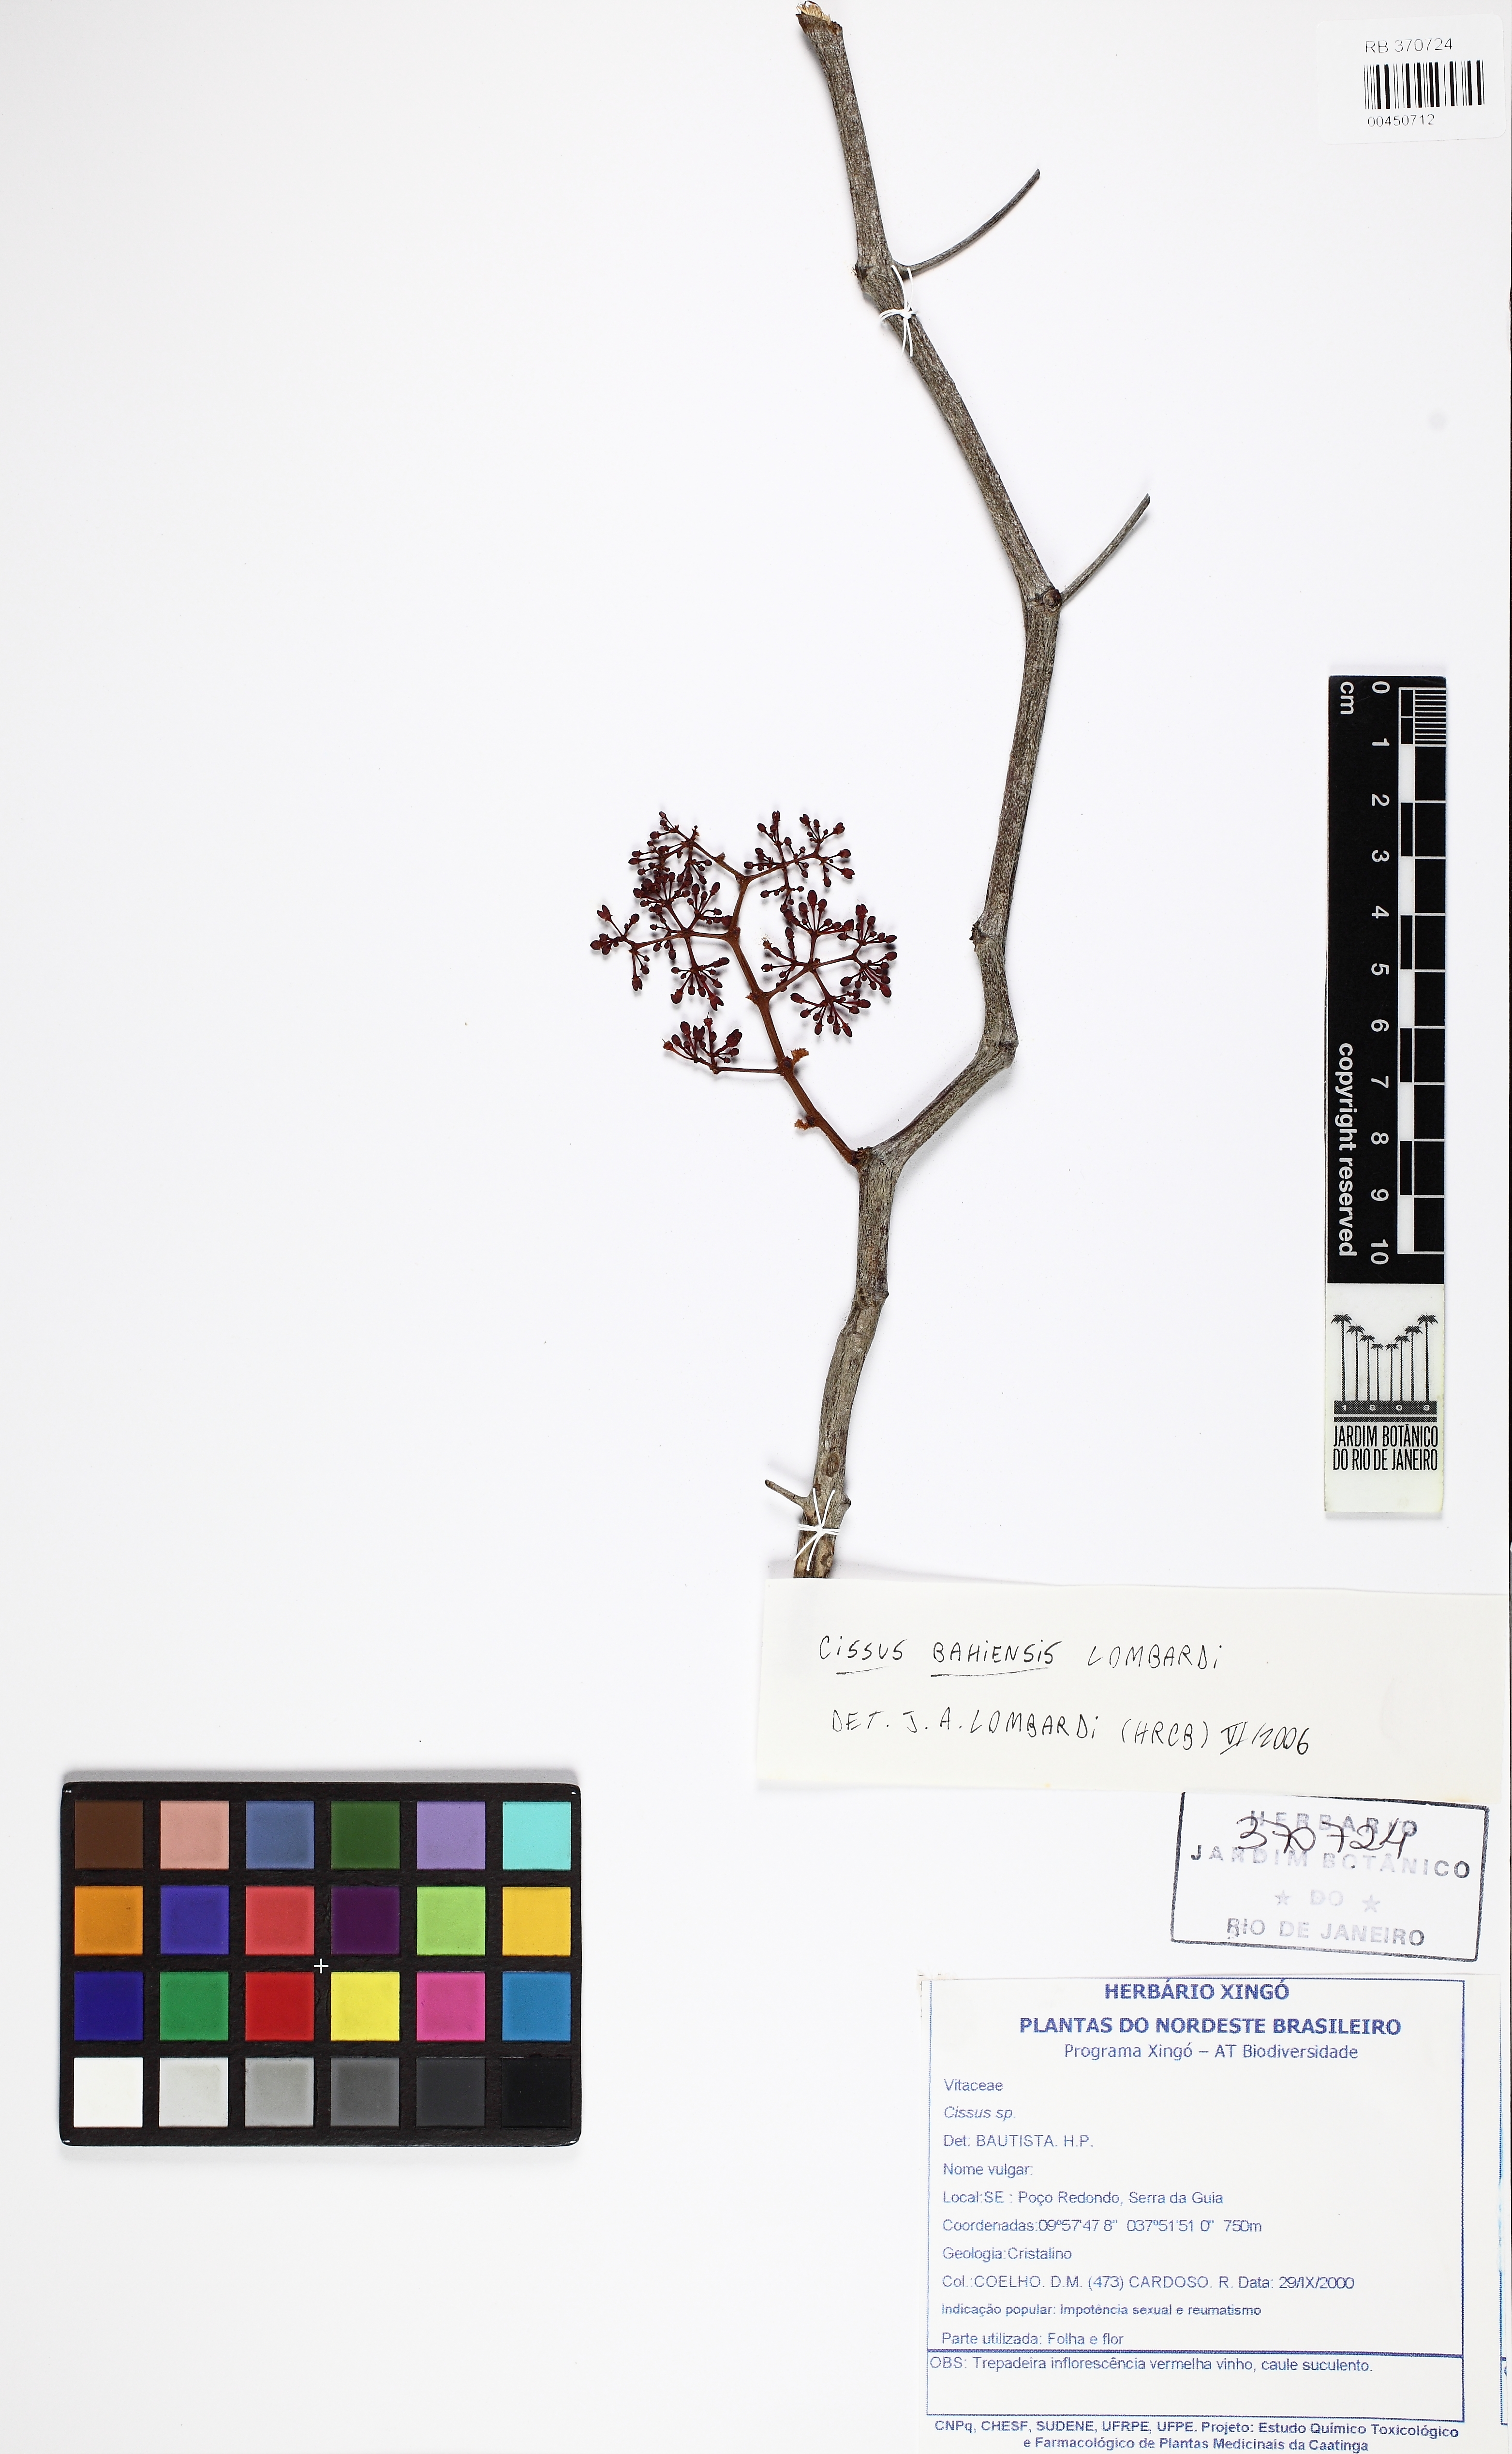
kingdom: Plantae
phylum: Tracheophyta
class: Magnoliopsida
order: Vitales
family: Vitaceae
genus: Cissus
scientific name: Cissus bahiensis
